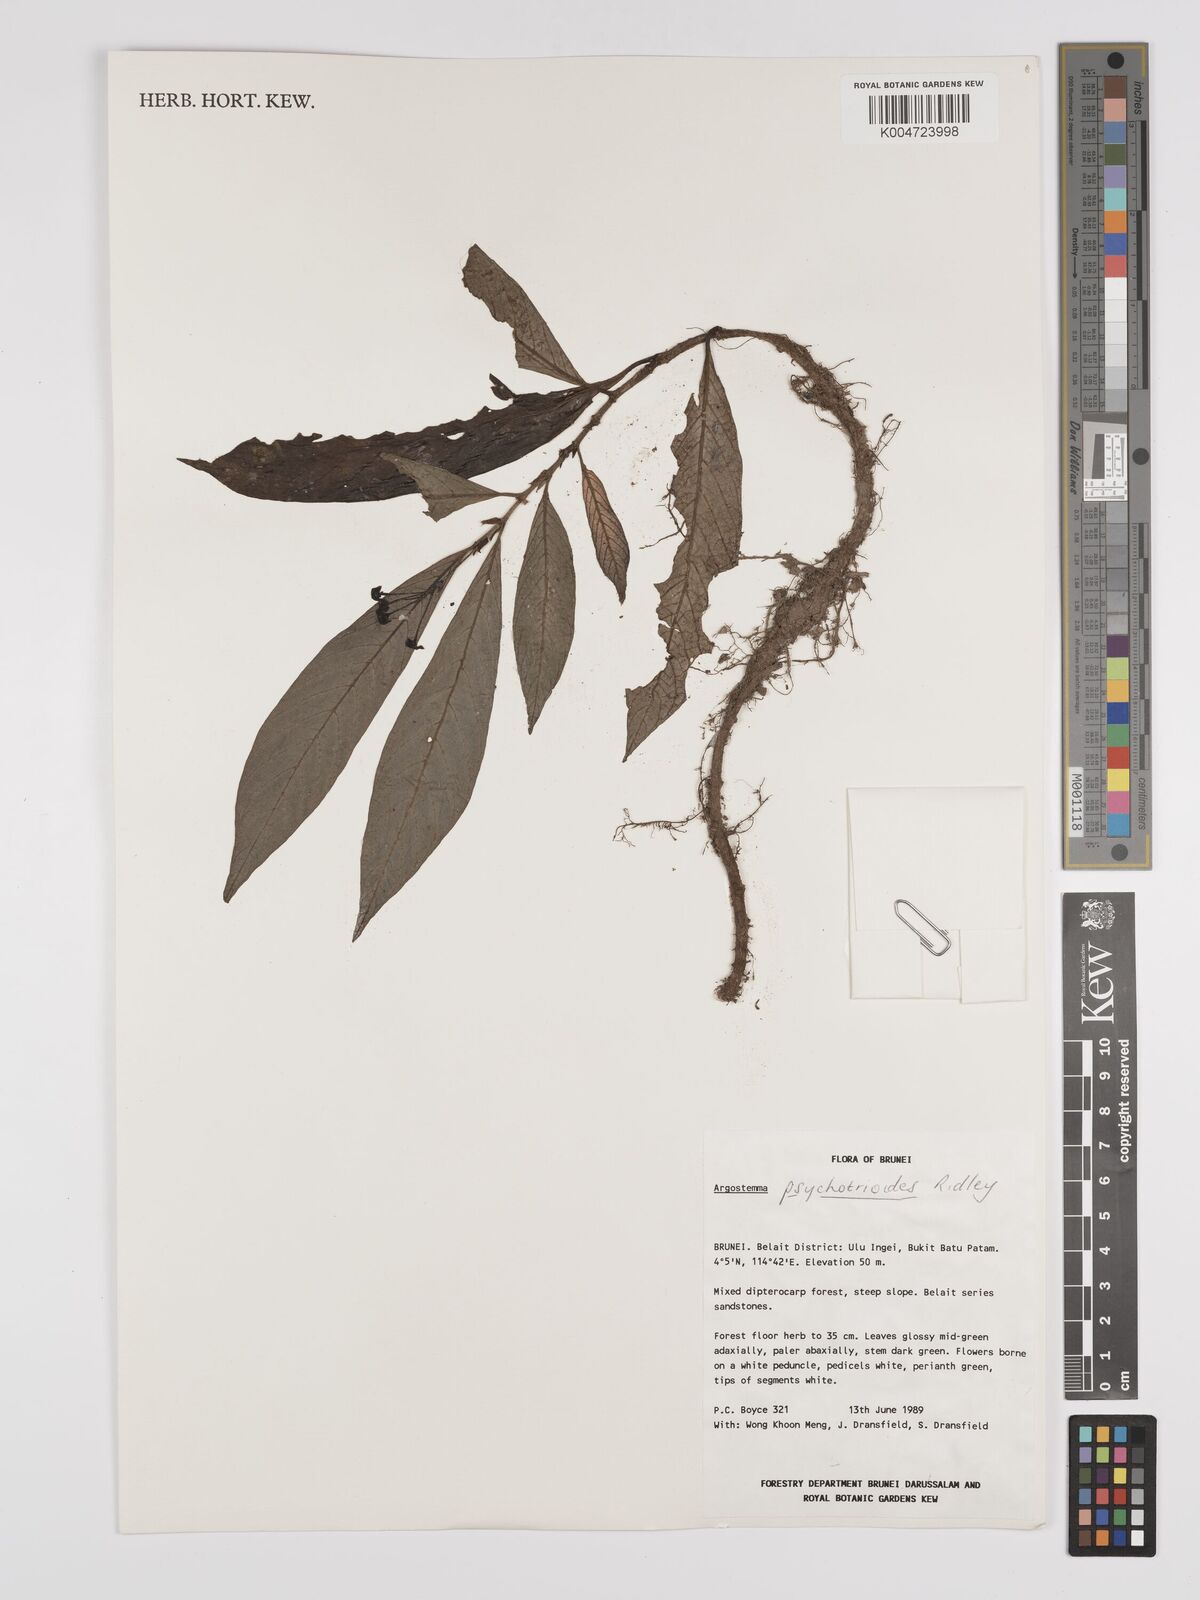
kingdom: Plantae
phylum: Tracheophyta
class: Magnoliopsida
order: Gentianales
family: Rubiaceae
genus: Argostemma
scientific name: Argostemma psychotrioides
